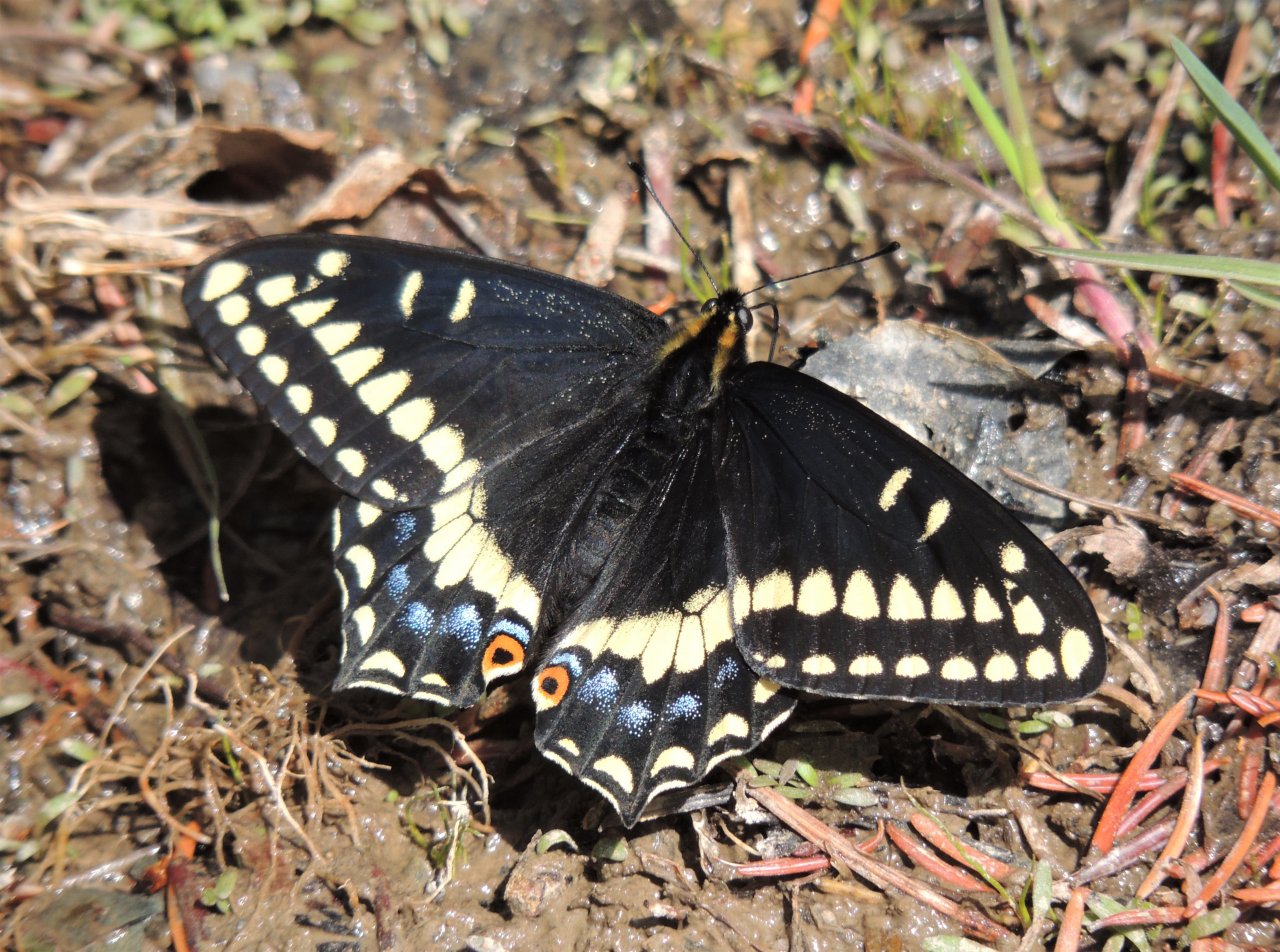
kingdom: Animalia
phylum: Arthropoda
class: Insecta
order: Lepidoptera
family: Papilionidae
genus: Papilio
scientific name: Papilio indra
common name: Indra Swallowtail
